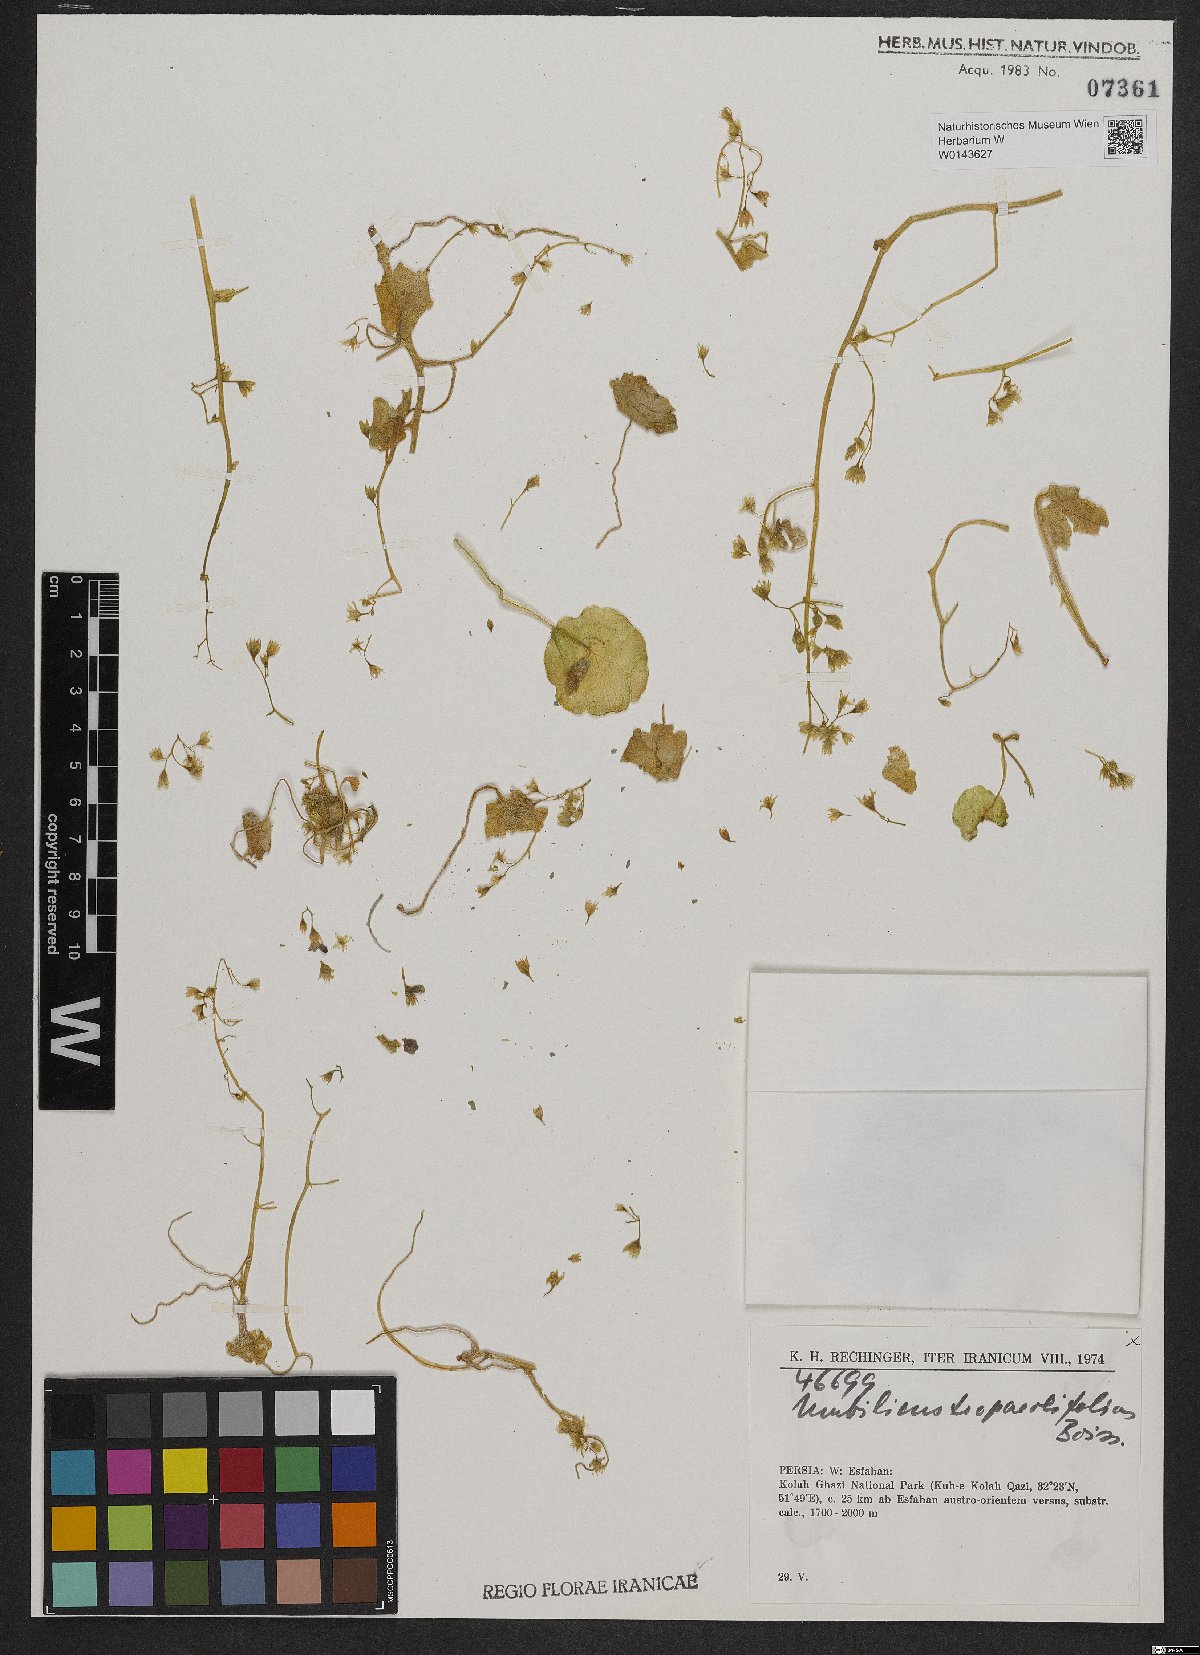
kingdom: Plantae
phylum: Tracheophyta
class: Magnoliopsida
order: Saxifragales
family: Crassulaceae
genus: Umbilicus
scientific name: Umbilicus tropaeolifolius
